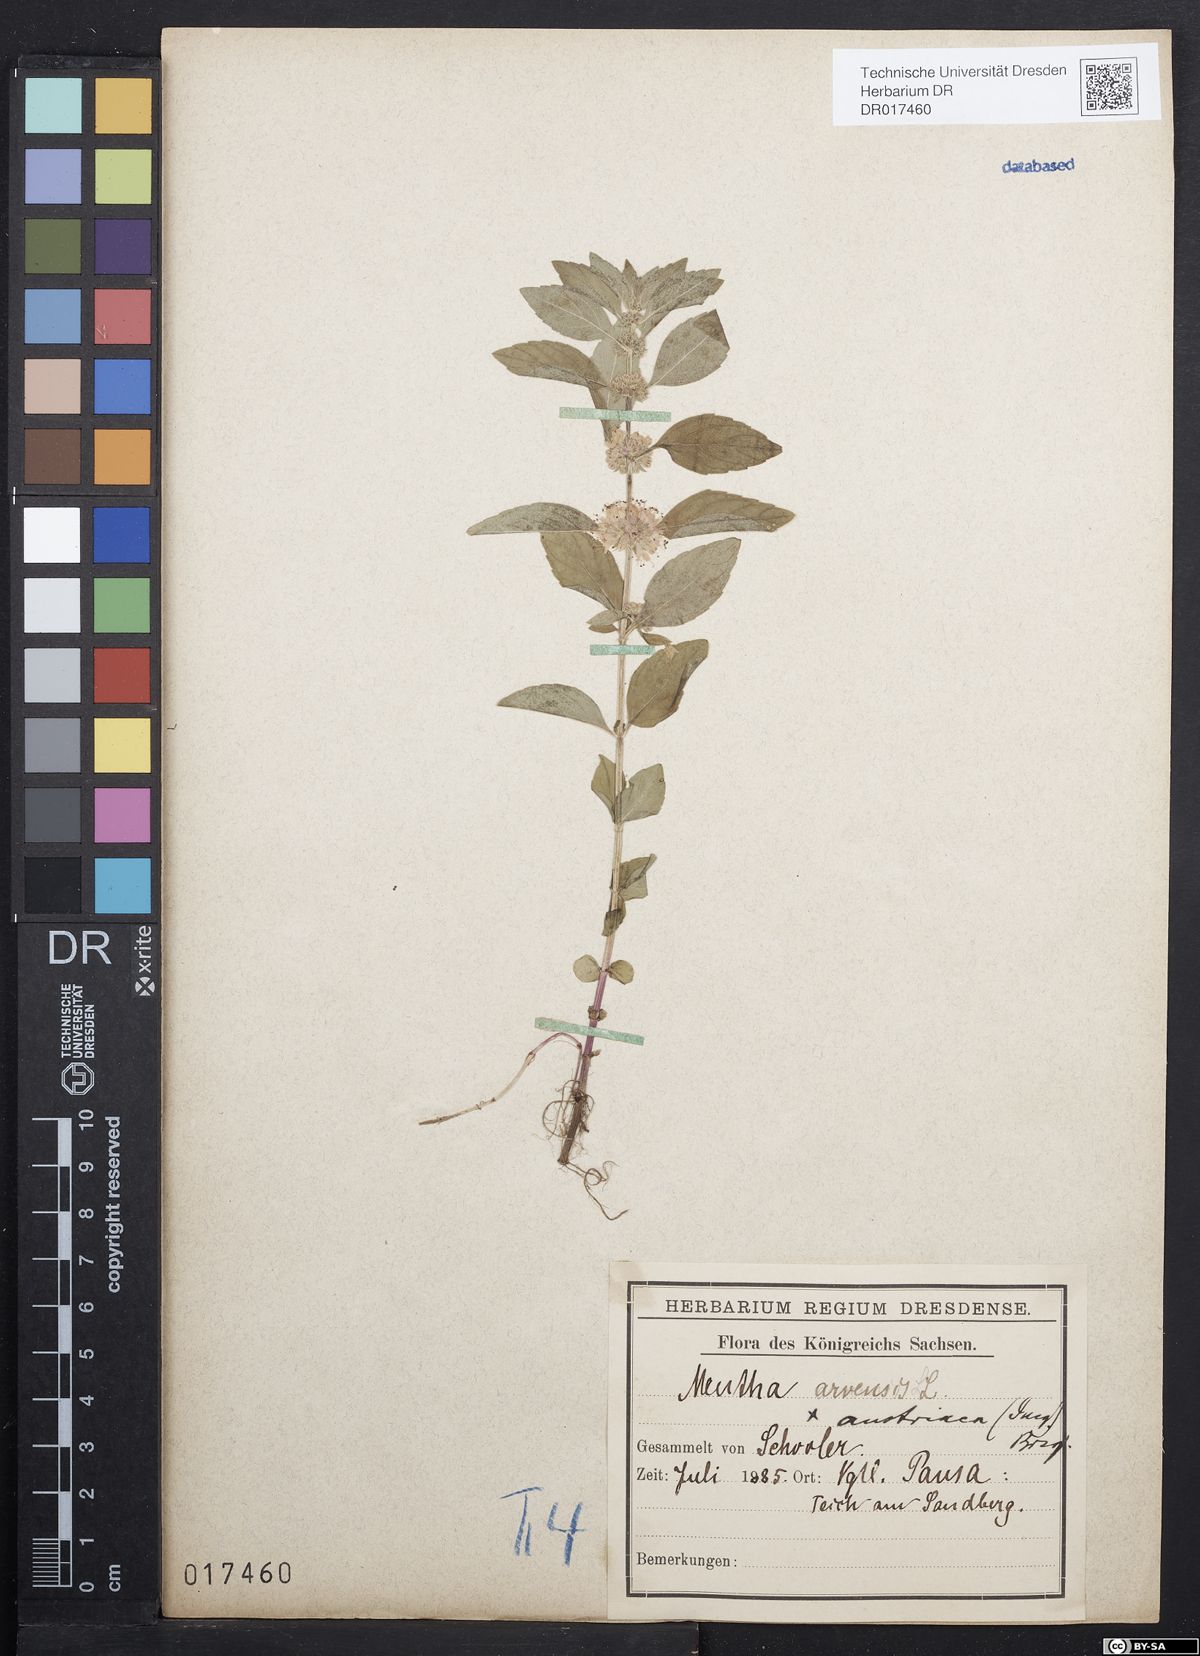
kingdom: Plantae
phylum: Tracheophyta
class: Magnoliopsida
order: Lamiales
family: Lamiaceae
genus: Mentha
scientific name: Mentha arvensis
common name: Corn mint
